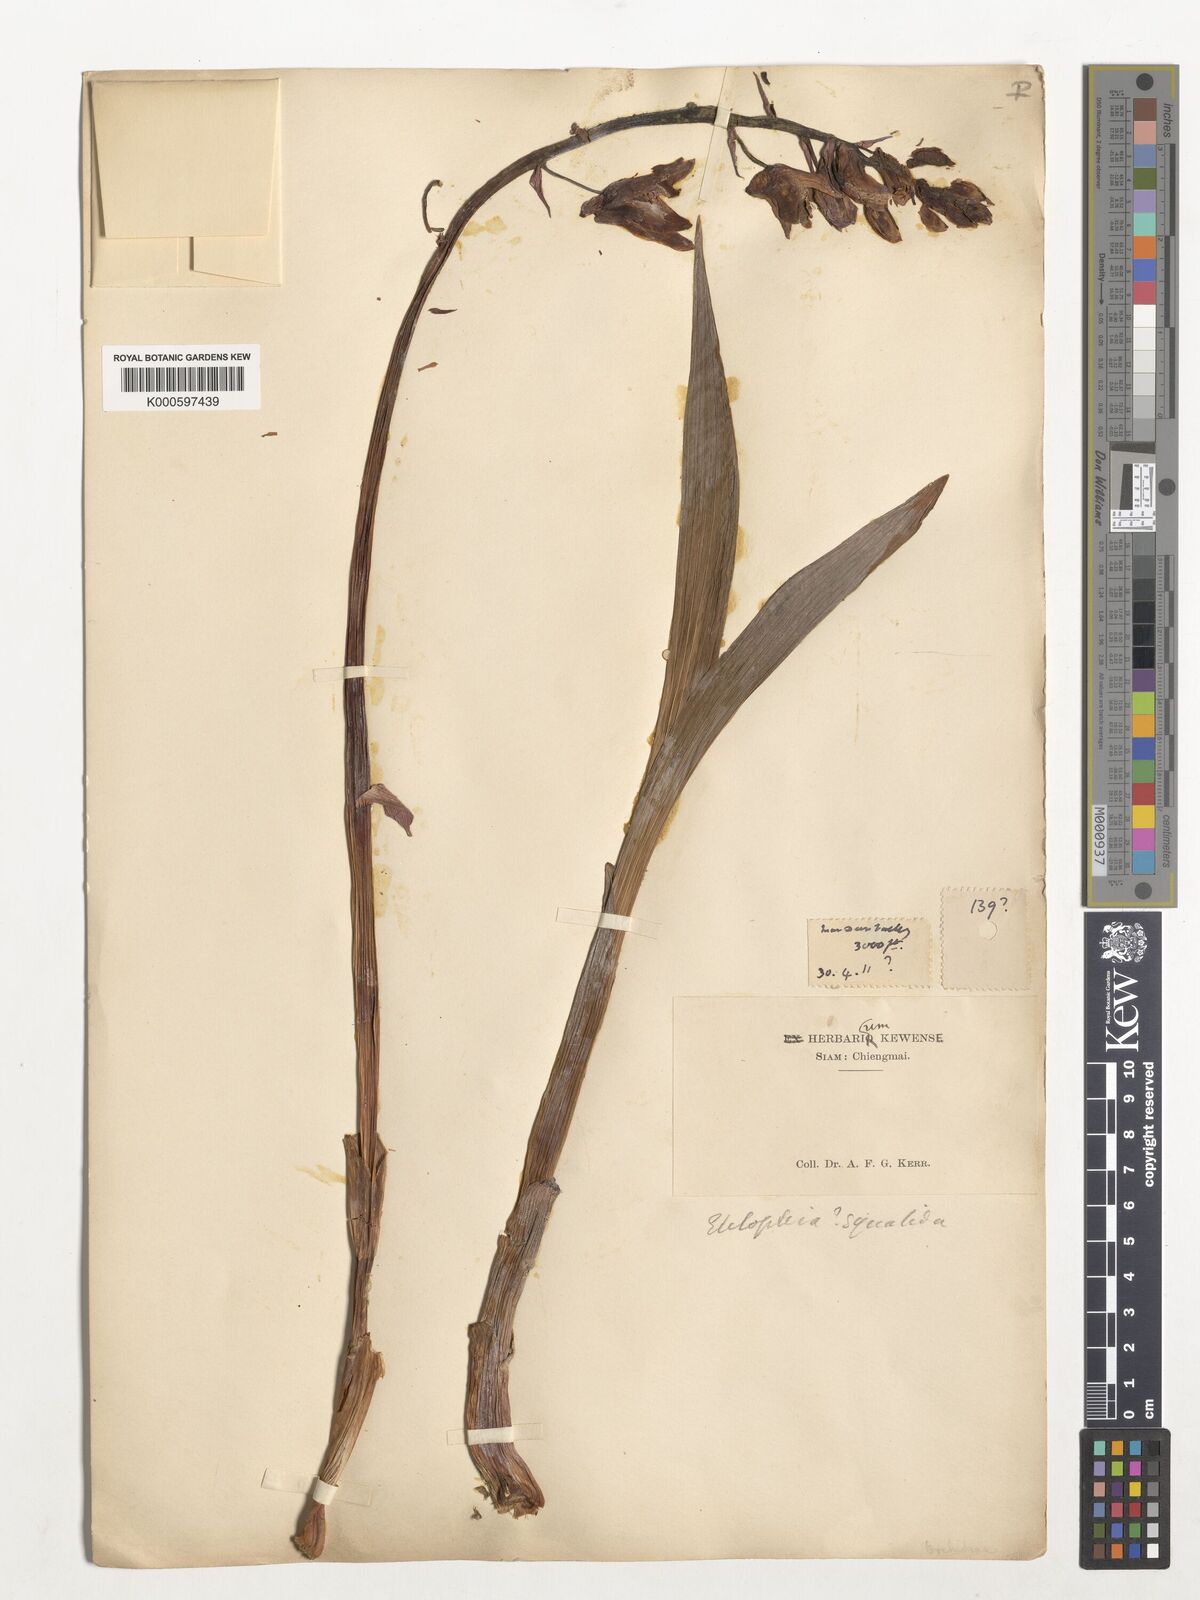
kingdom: Plantae
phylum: Tracheophyta
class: Liliopsida
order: Asparagales
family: Orchidaceae
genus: Eulophia
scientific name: Eulophia nuda
